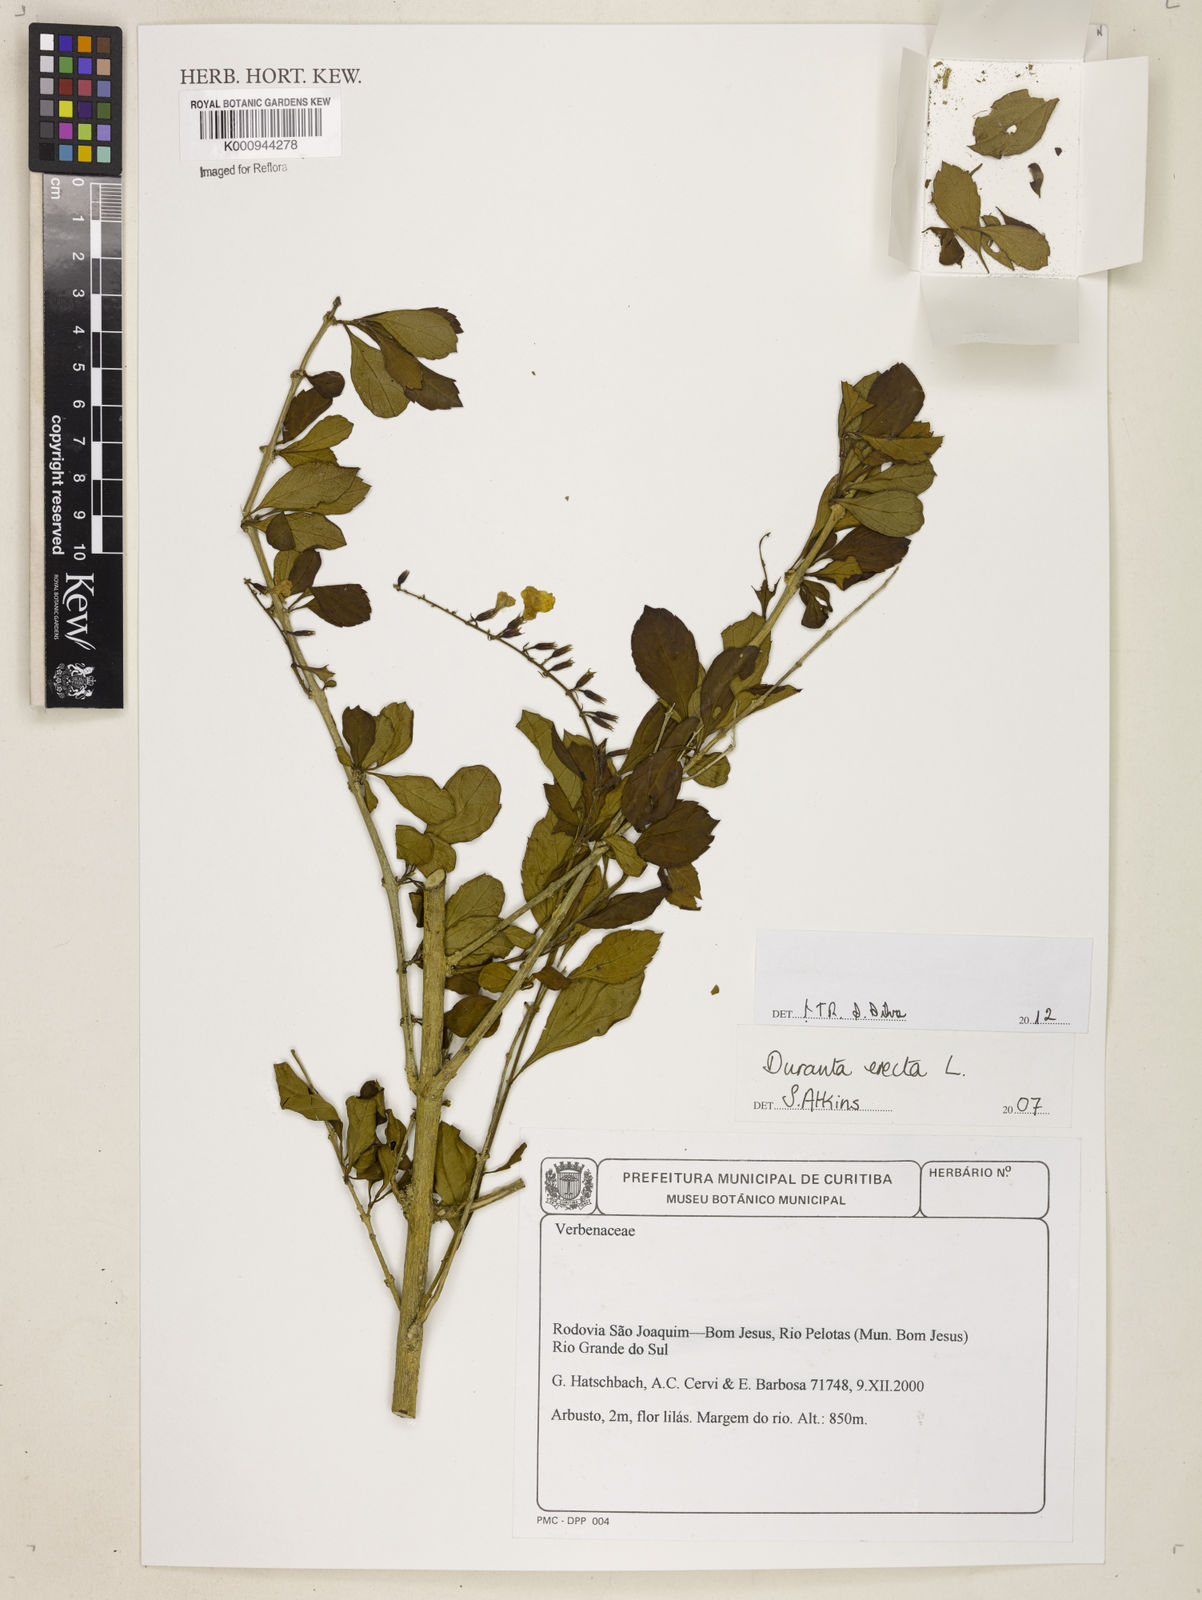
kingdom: Plantae
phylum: Tracheophyta
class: Magnoliopsida
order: Lamiales
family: Verbenaceae
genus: Citharexylum
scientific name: Citharexylum caudatum
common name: Fiddlewood
